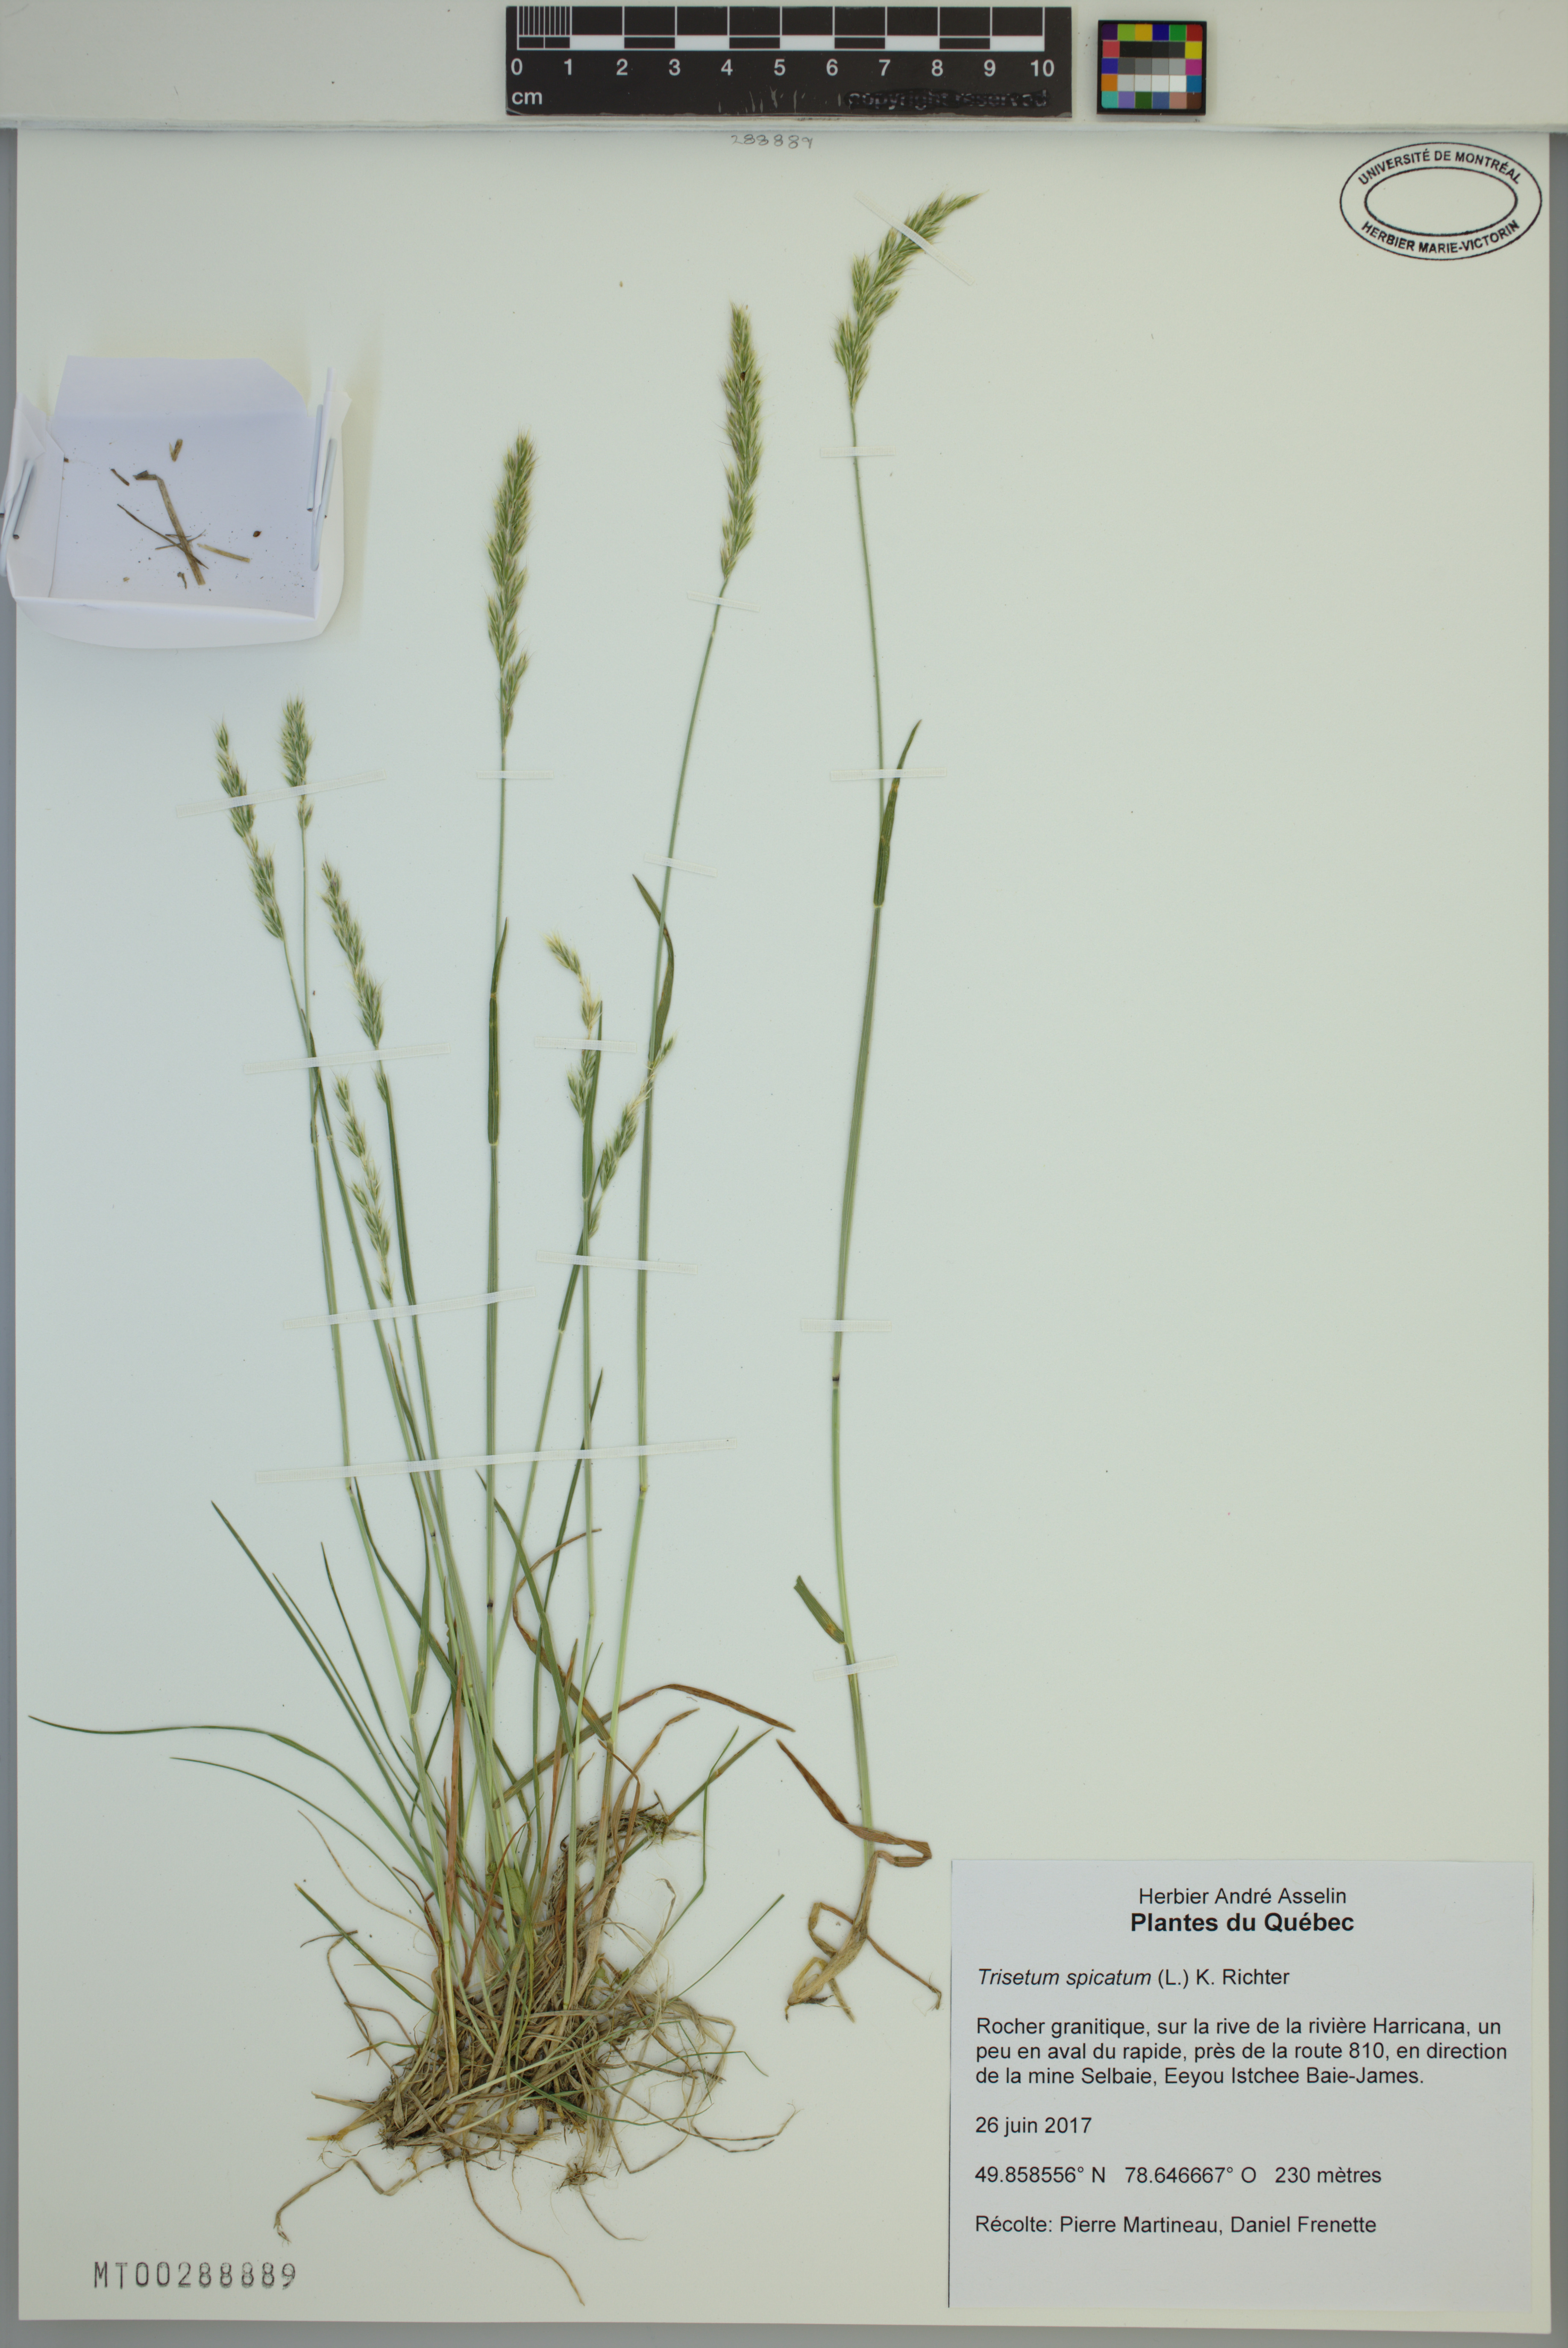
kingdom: Plantae
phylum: Tracheophyta
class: Liliopsida
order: Poales
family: Poaceae
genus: Koeleria
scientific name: Koeleria spicata
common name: Mountain trisetum
